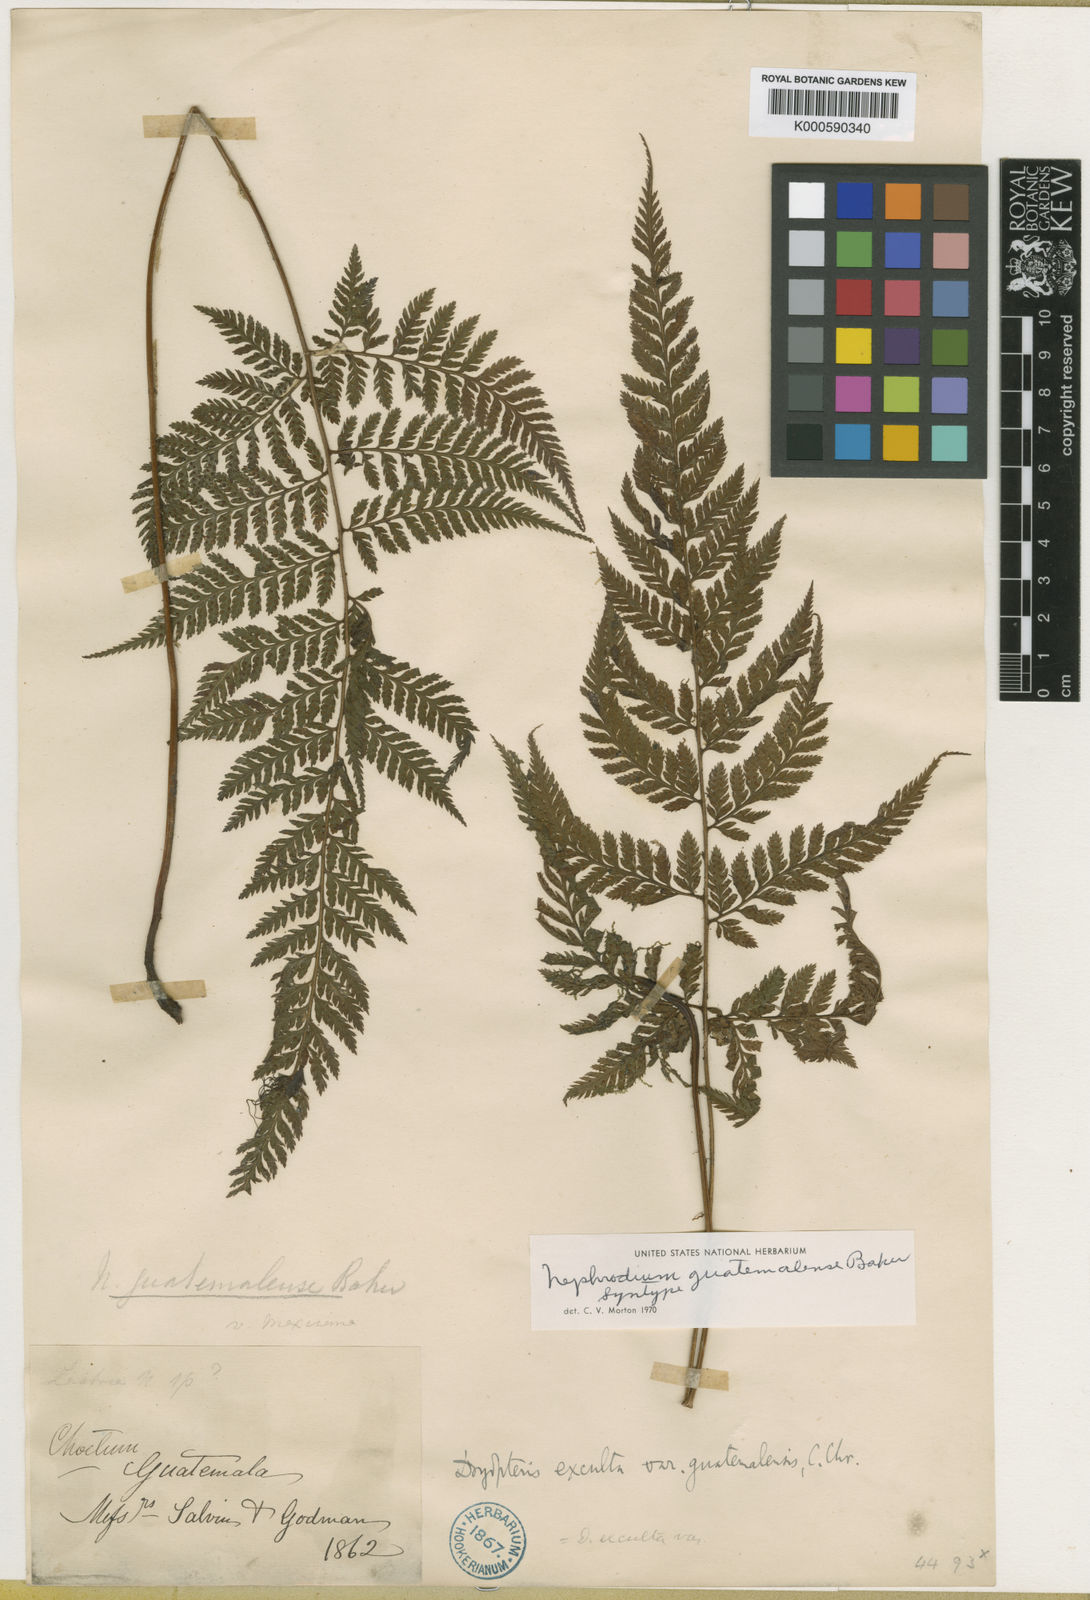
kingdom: Plantae
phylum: Tracheophyta
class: Polypodiopsida
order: Polypodiales
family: Dryopteridaceae
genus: Parapolystichum
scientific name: Parapolystichum excultum
